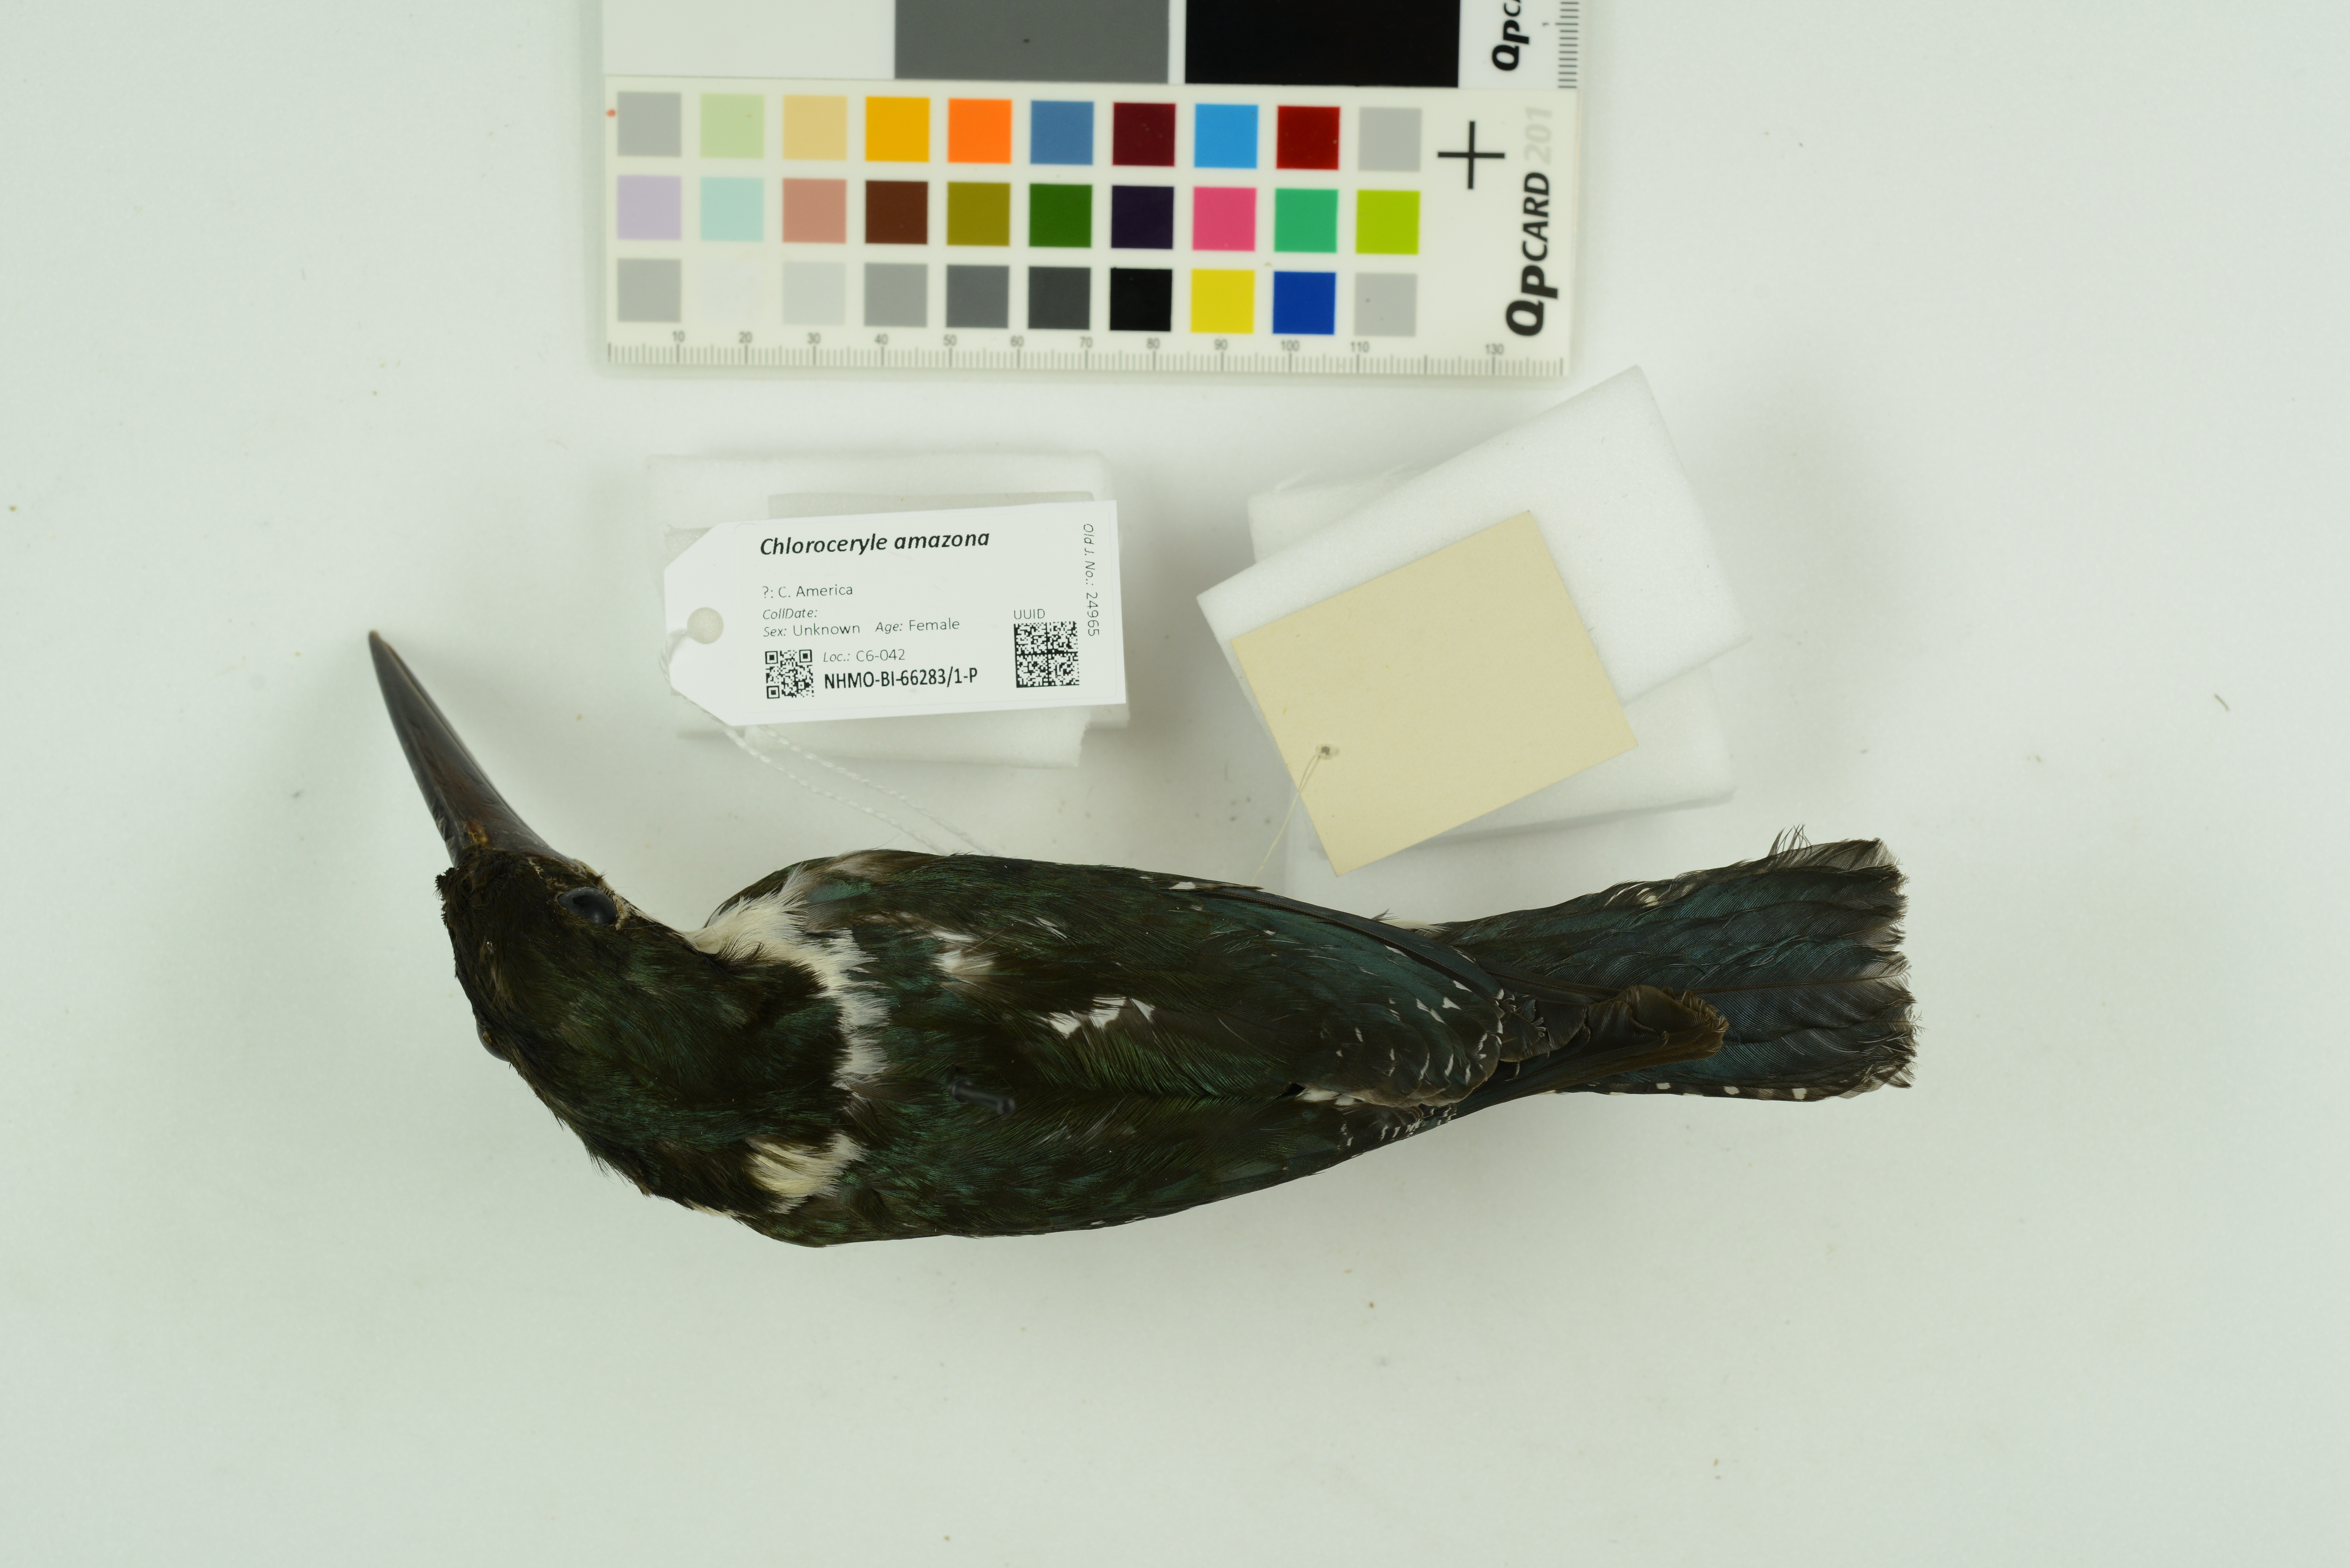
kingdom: Animalia
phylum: Chordata
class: Aves
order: Coraciiformes
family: Alcedinidae
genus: Chloroceryle
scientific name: Chloroceryle amazona
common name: Amazon kingfisher
